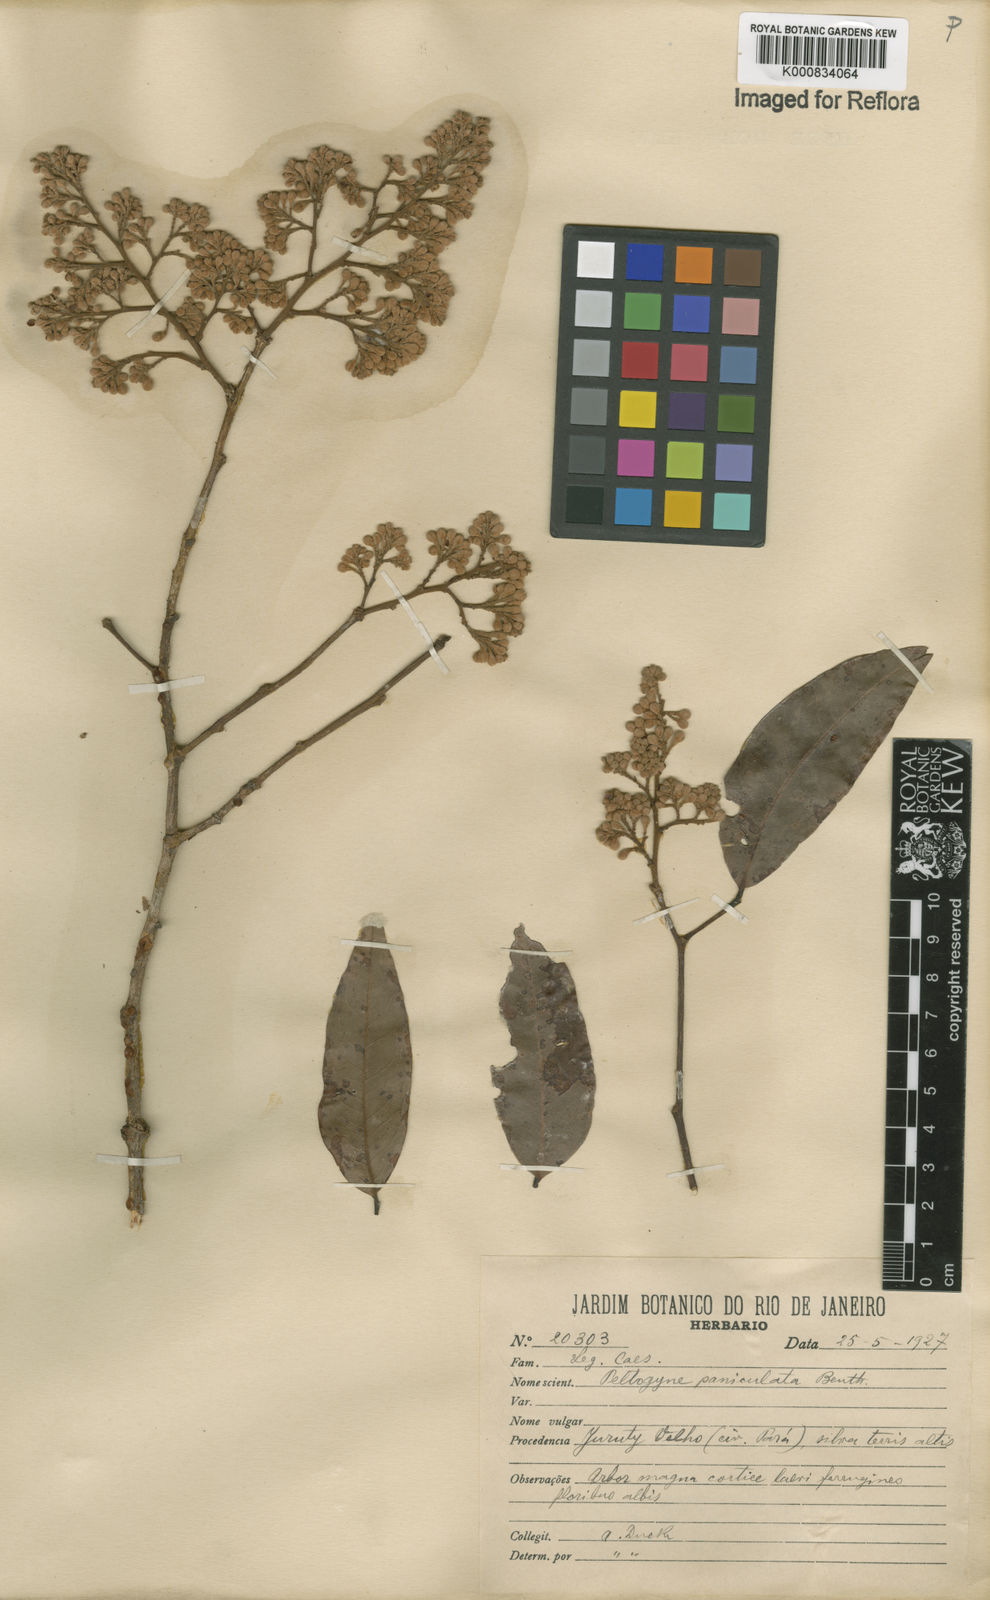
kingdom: Plantae
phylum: Tracheophyta
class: Magnoliopsida
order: Fabales
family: Fabaceae
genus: Peltogyne
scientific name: Peltogyne paniculata
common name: Purpleheart
